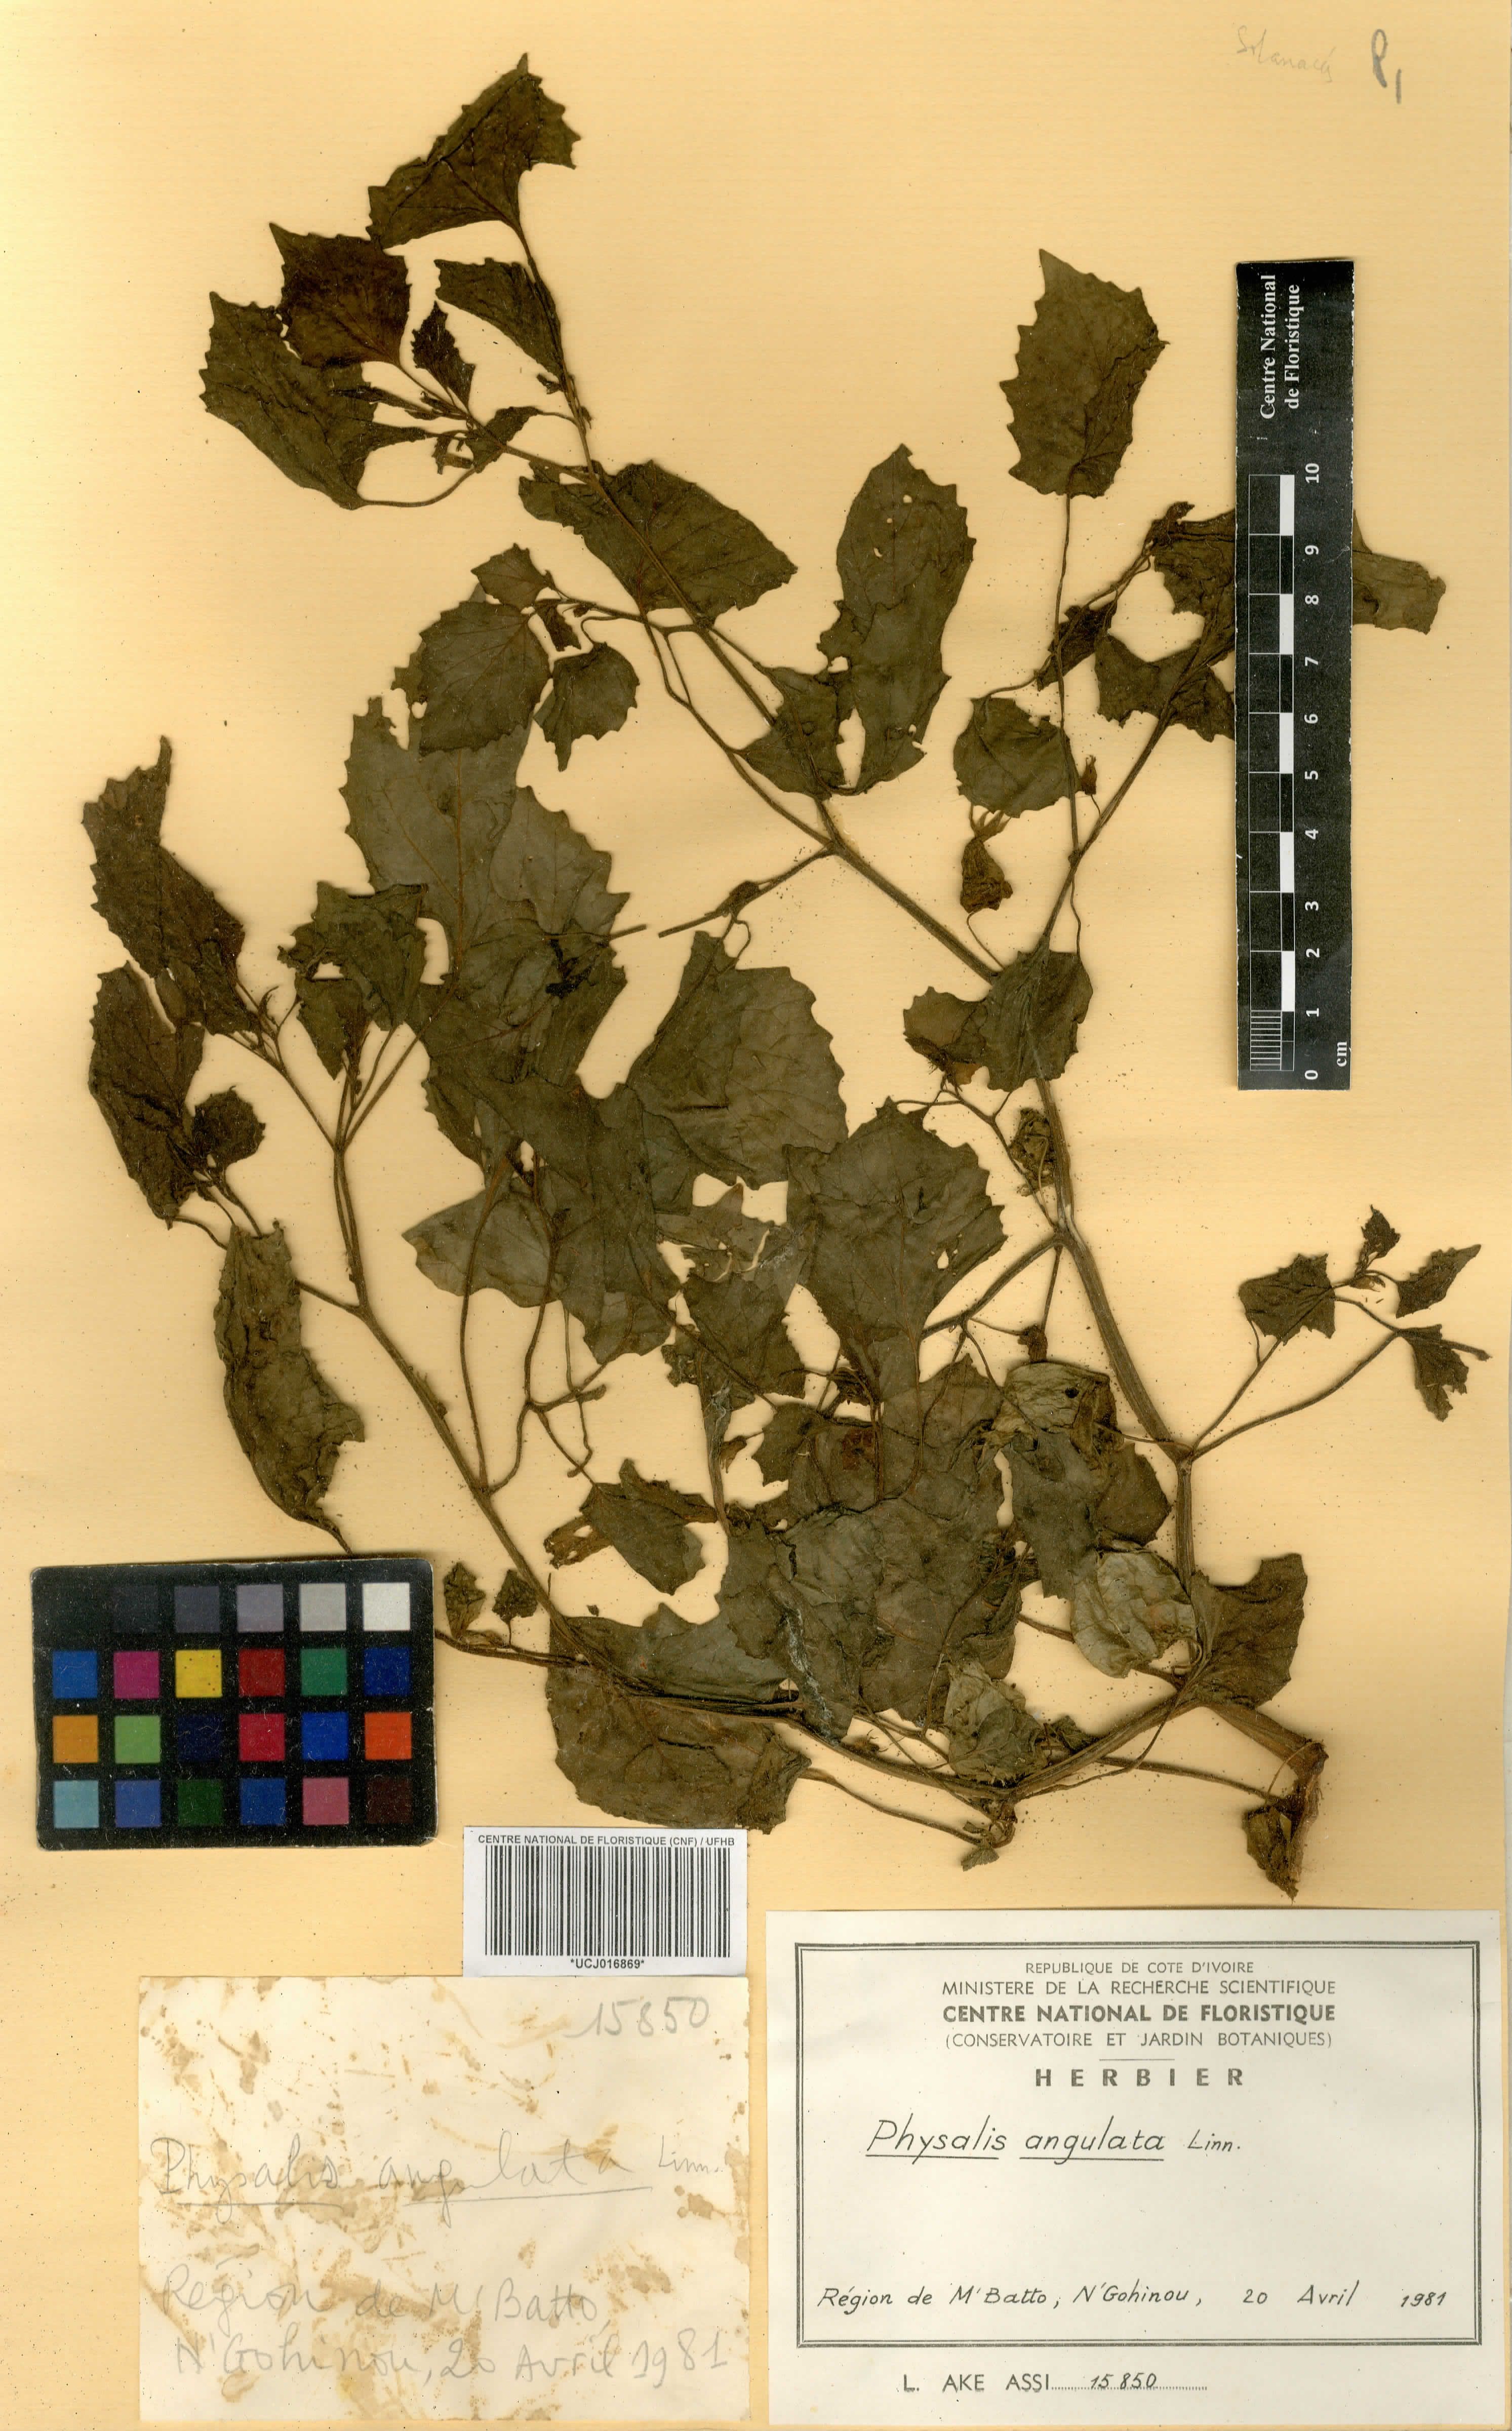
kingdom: Plantae
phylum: Tracheophyta
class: Magnoliopsida
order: Solanales
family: Solanaceae
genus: Physalis
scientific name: Physalis angulata
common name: Angular winter-cherry
